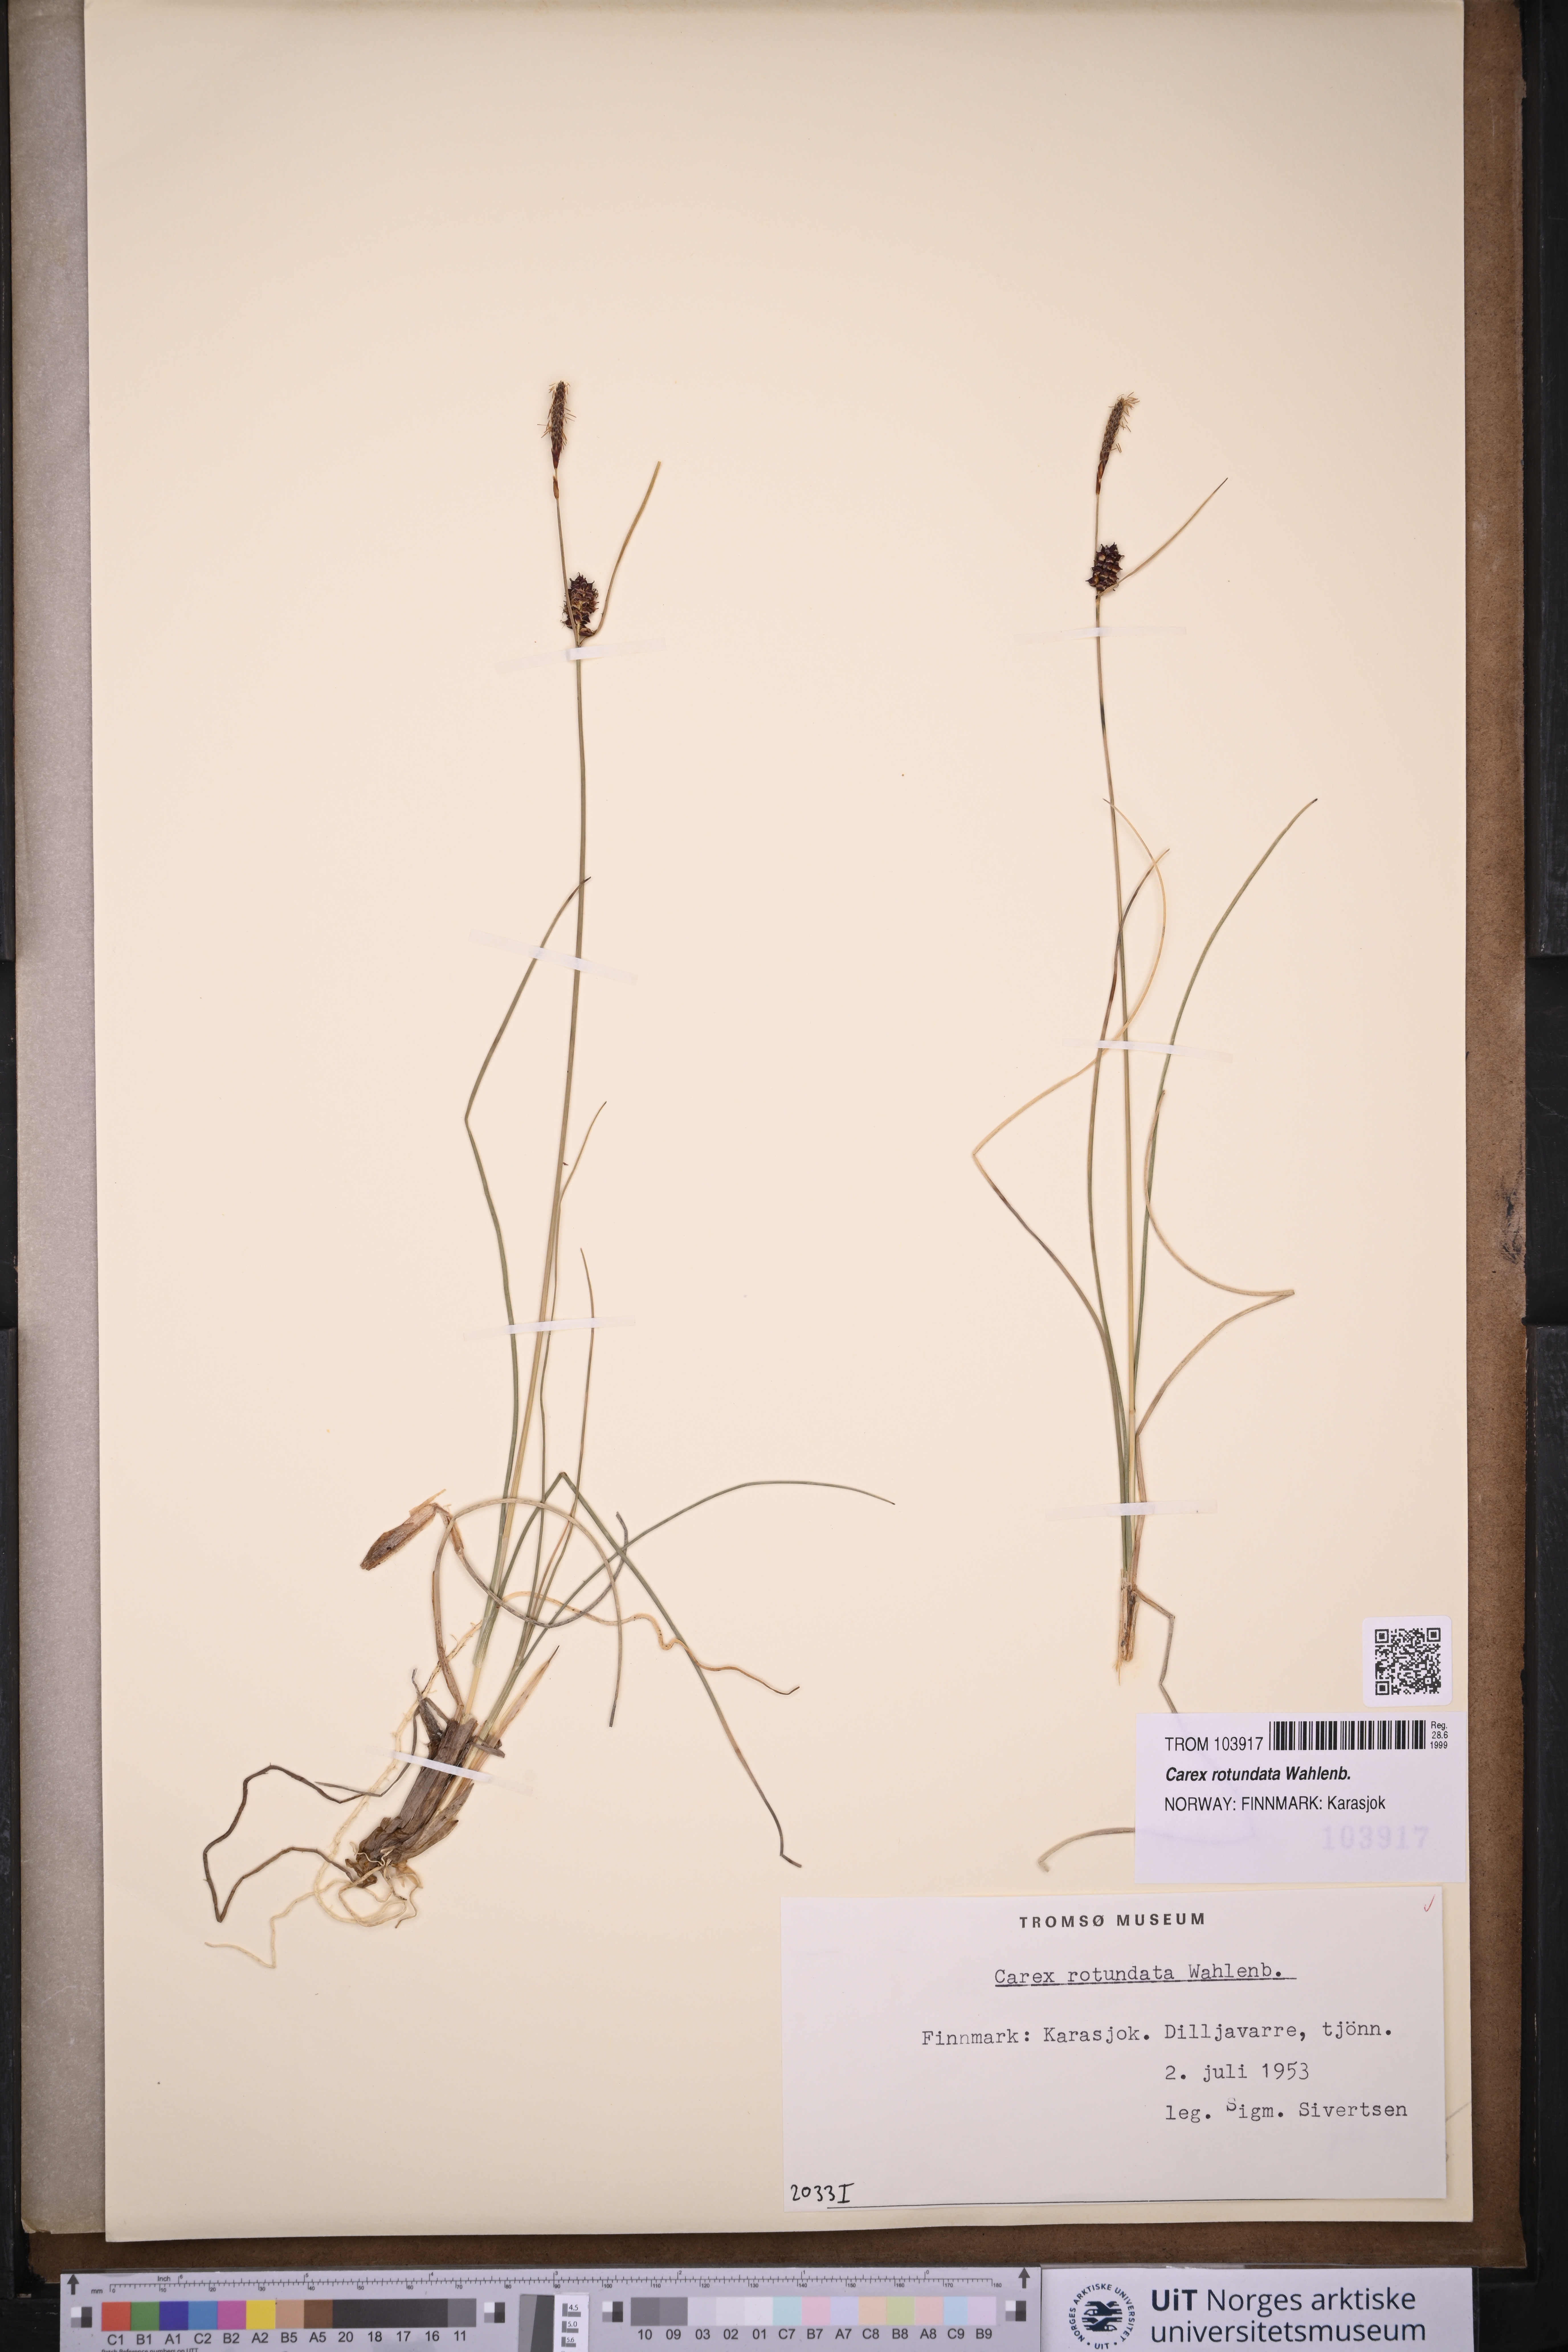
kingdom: Plantae
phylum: Tracheophyta
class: Liliopsida
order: Poales
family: Cyperaceae
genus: Carex
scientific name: Carex rotundata
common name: Round-fruited sedge
